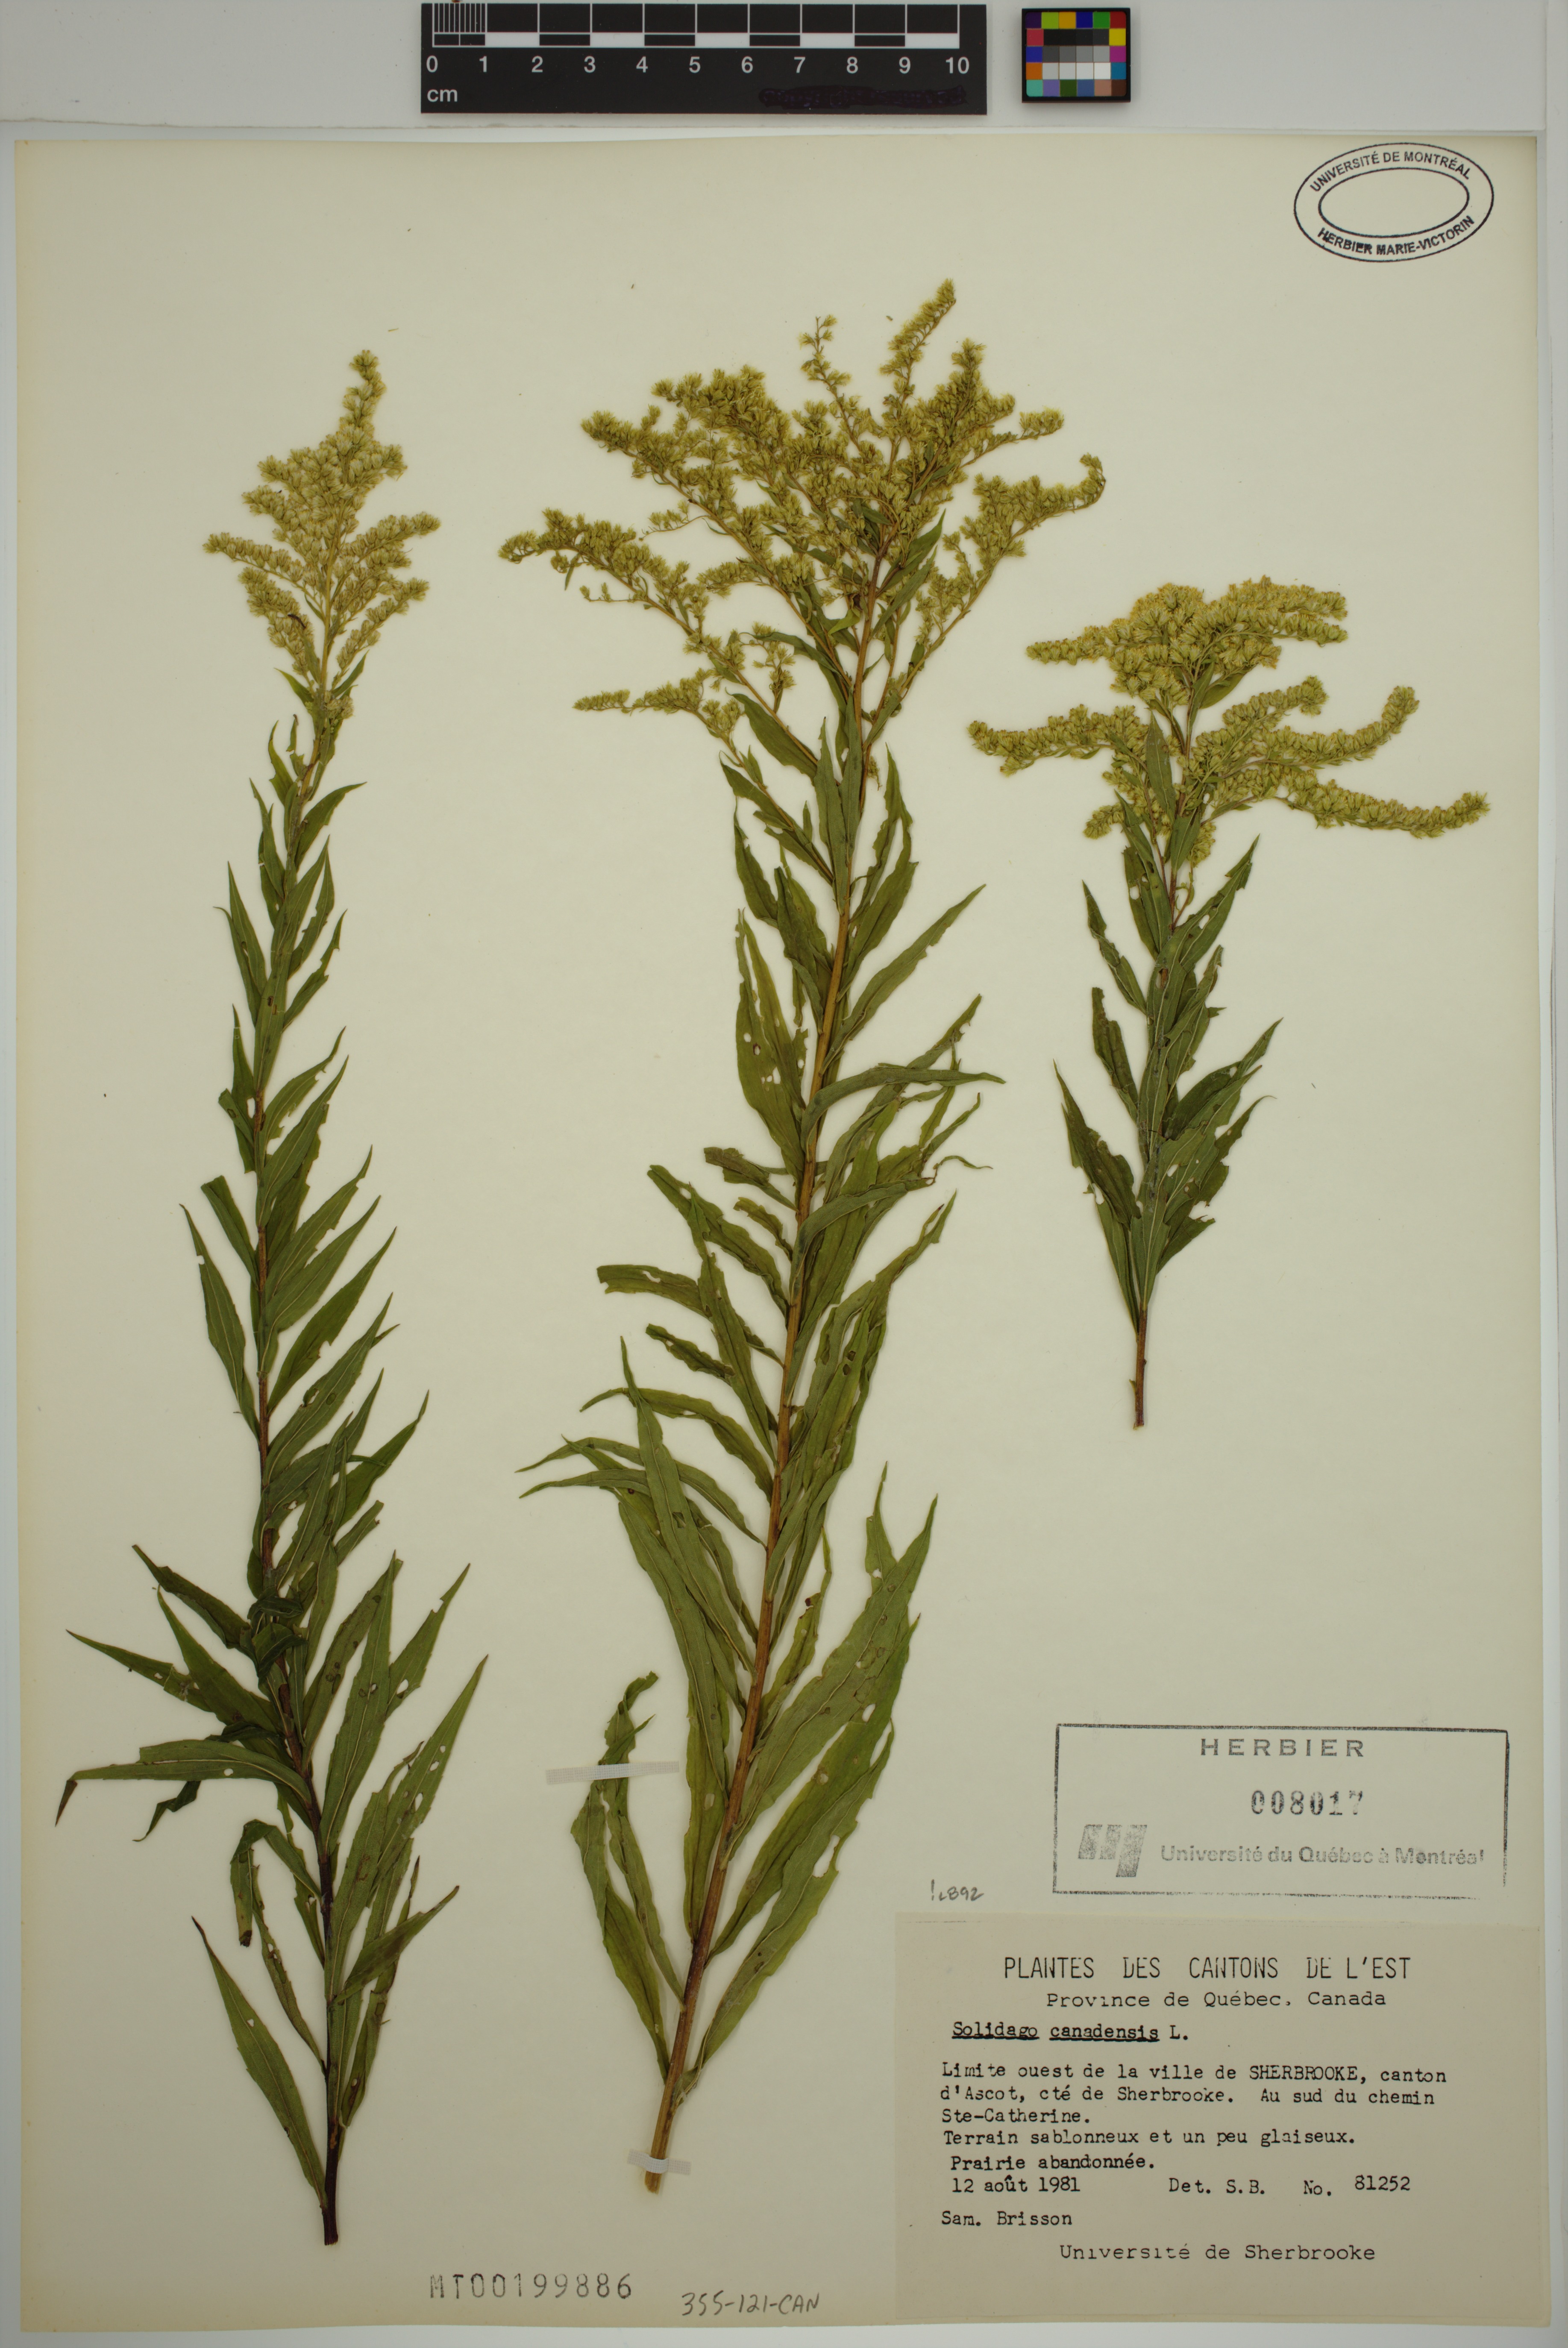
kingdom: Plantae
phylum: Tracheophyta
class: Magnoliopsida
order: Asterales
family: Asteraceae
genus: Solidago
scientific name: Solidago canadensis
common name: Canada goldenrod
